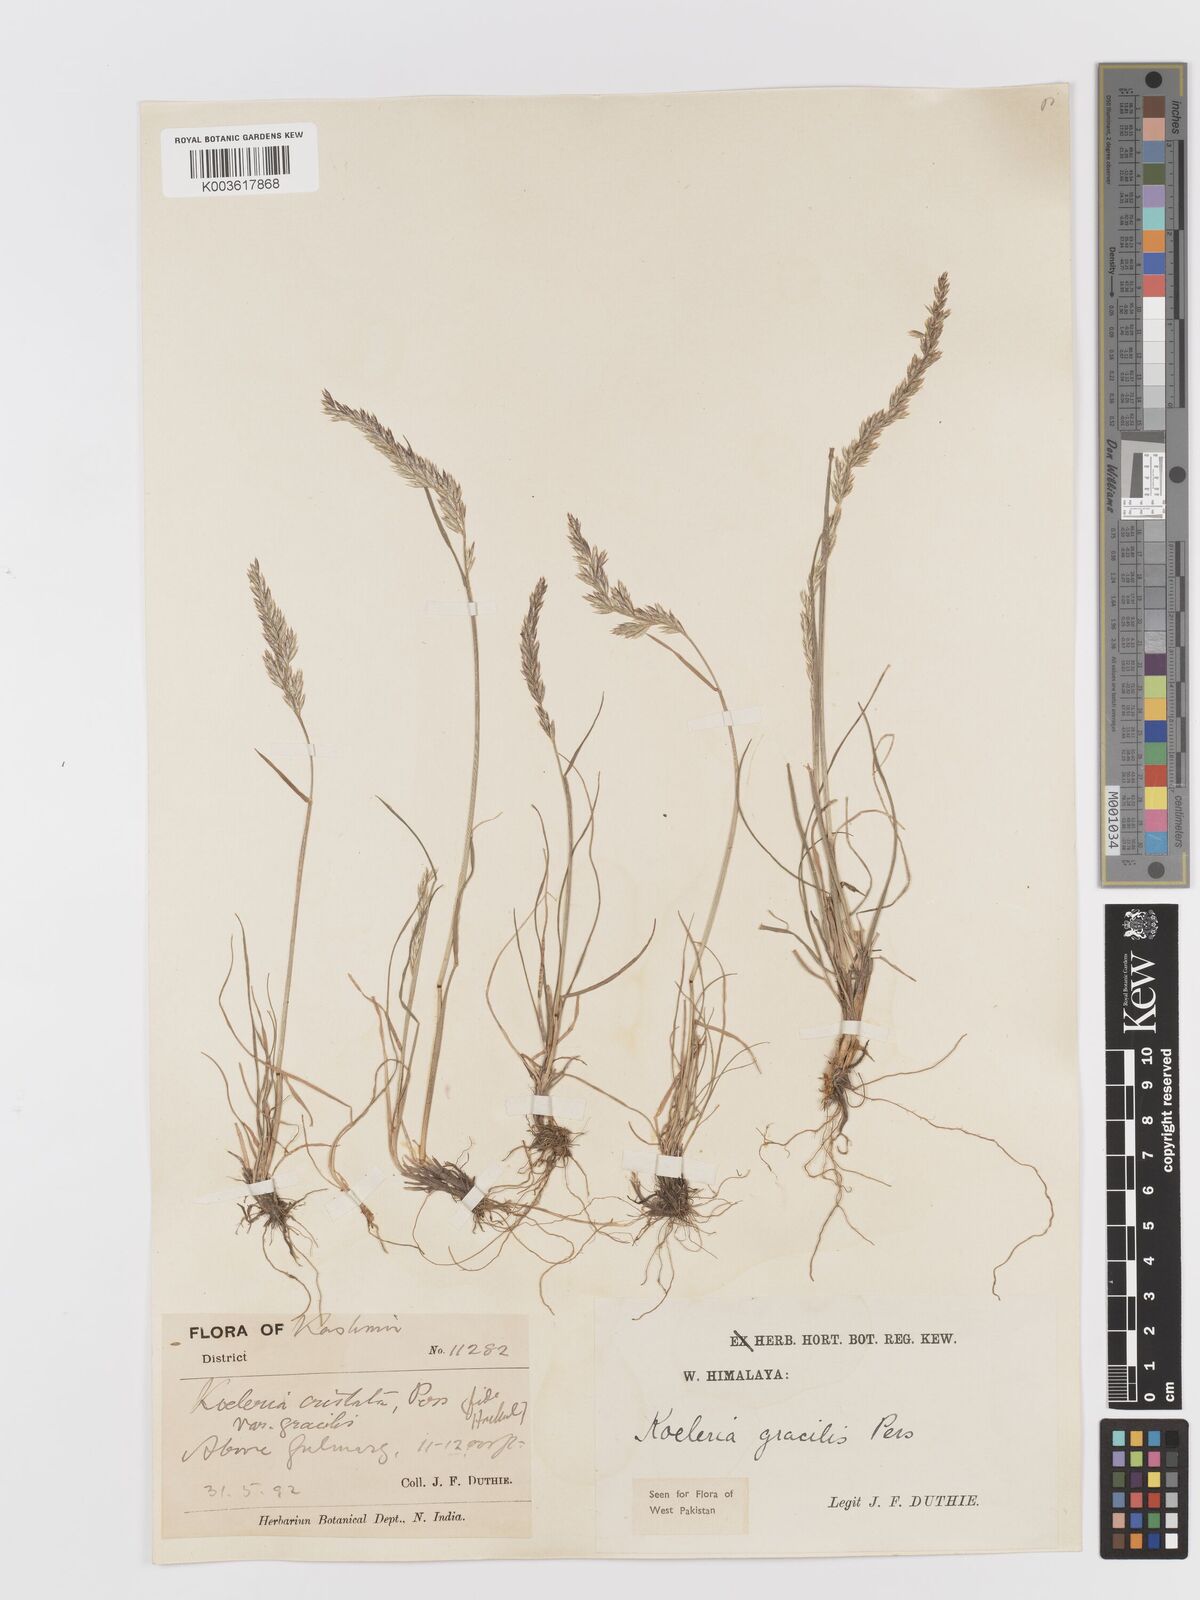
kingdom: Plantae
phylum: Tracheophyta
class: Liliopsida
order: Poales
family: Poaceae
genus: Koeleria
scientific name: Koeleria
